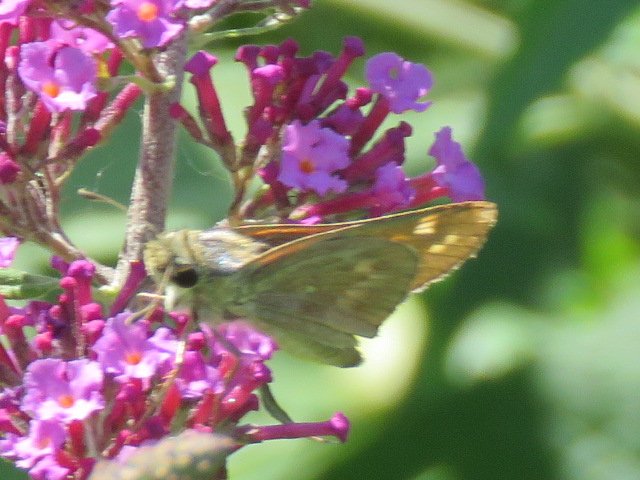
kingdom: Animalia
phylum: Arthropoda
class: Insecta
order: Lepidoptera
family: Hesperiidae
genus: Atalopedes
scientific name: Atalopedes campestris
